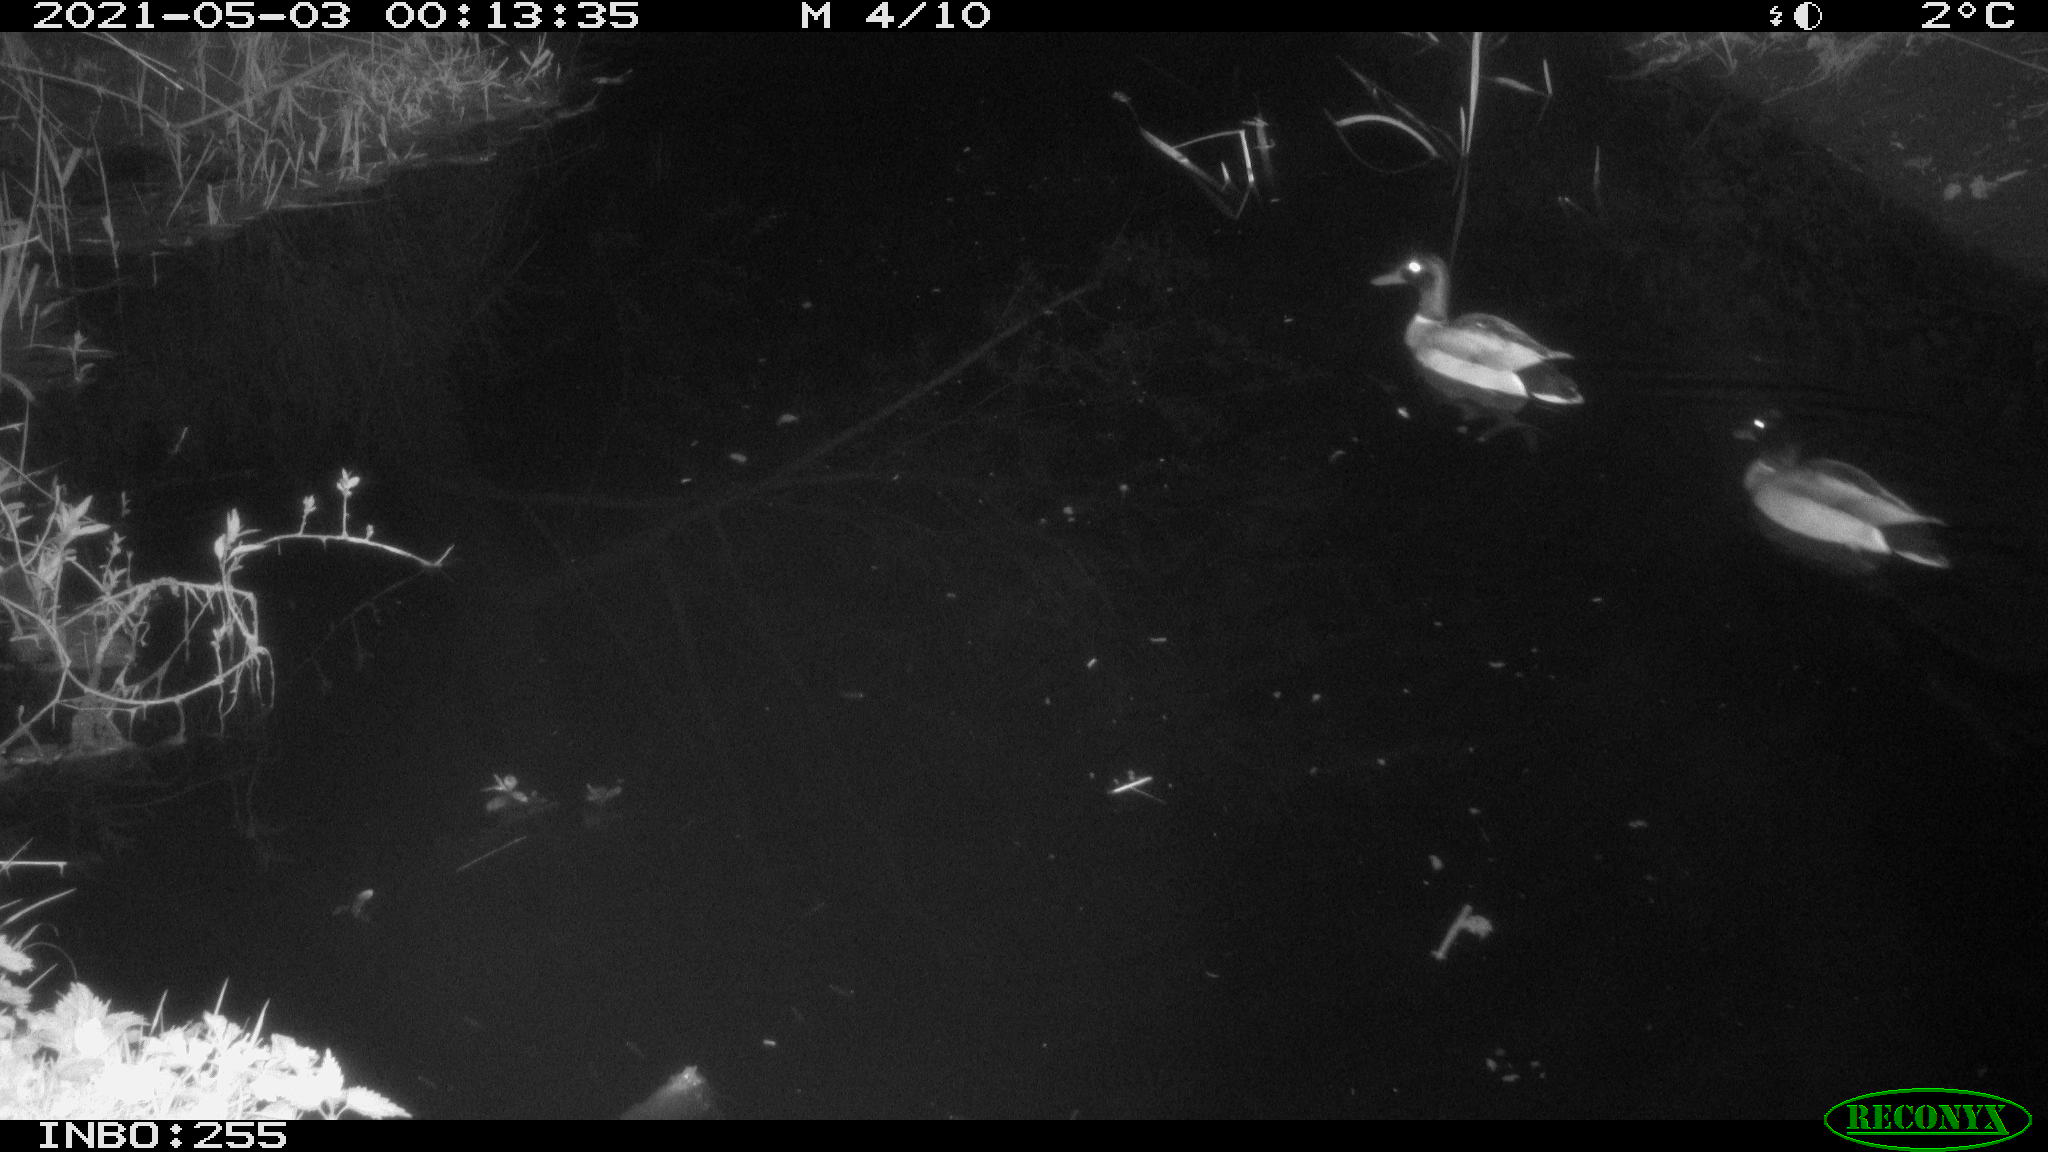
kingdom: Animalia
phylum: Chordata
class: Aves
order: Anseriformes
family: Anatidae
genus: Anas
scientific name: Anas platyrhynchos
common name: Mallard
